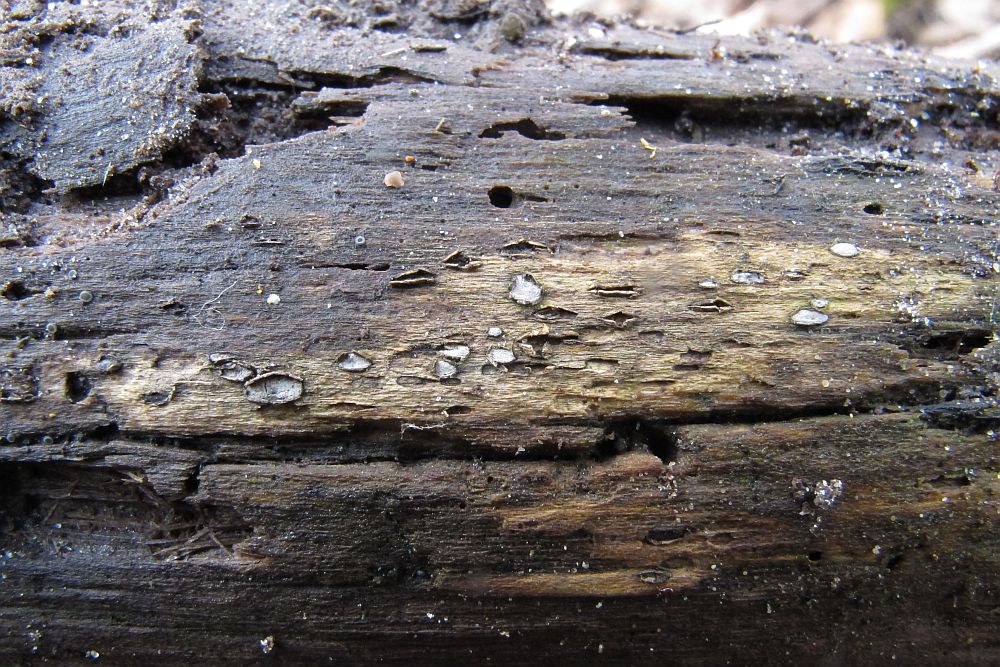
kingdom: Fungi
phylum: Ascomycota
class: Leotiomycetes
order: Chaetomellales
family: Marthamycetaceae
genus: Propolis
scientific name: Propolis farinosa
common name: almindelig vedsprængerskive
